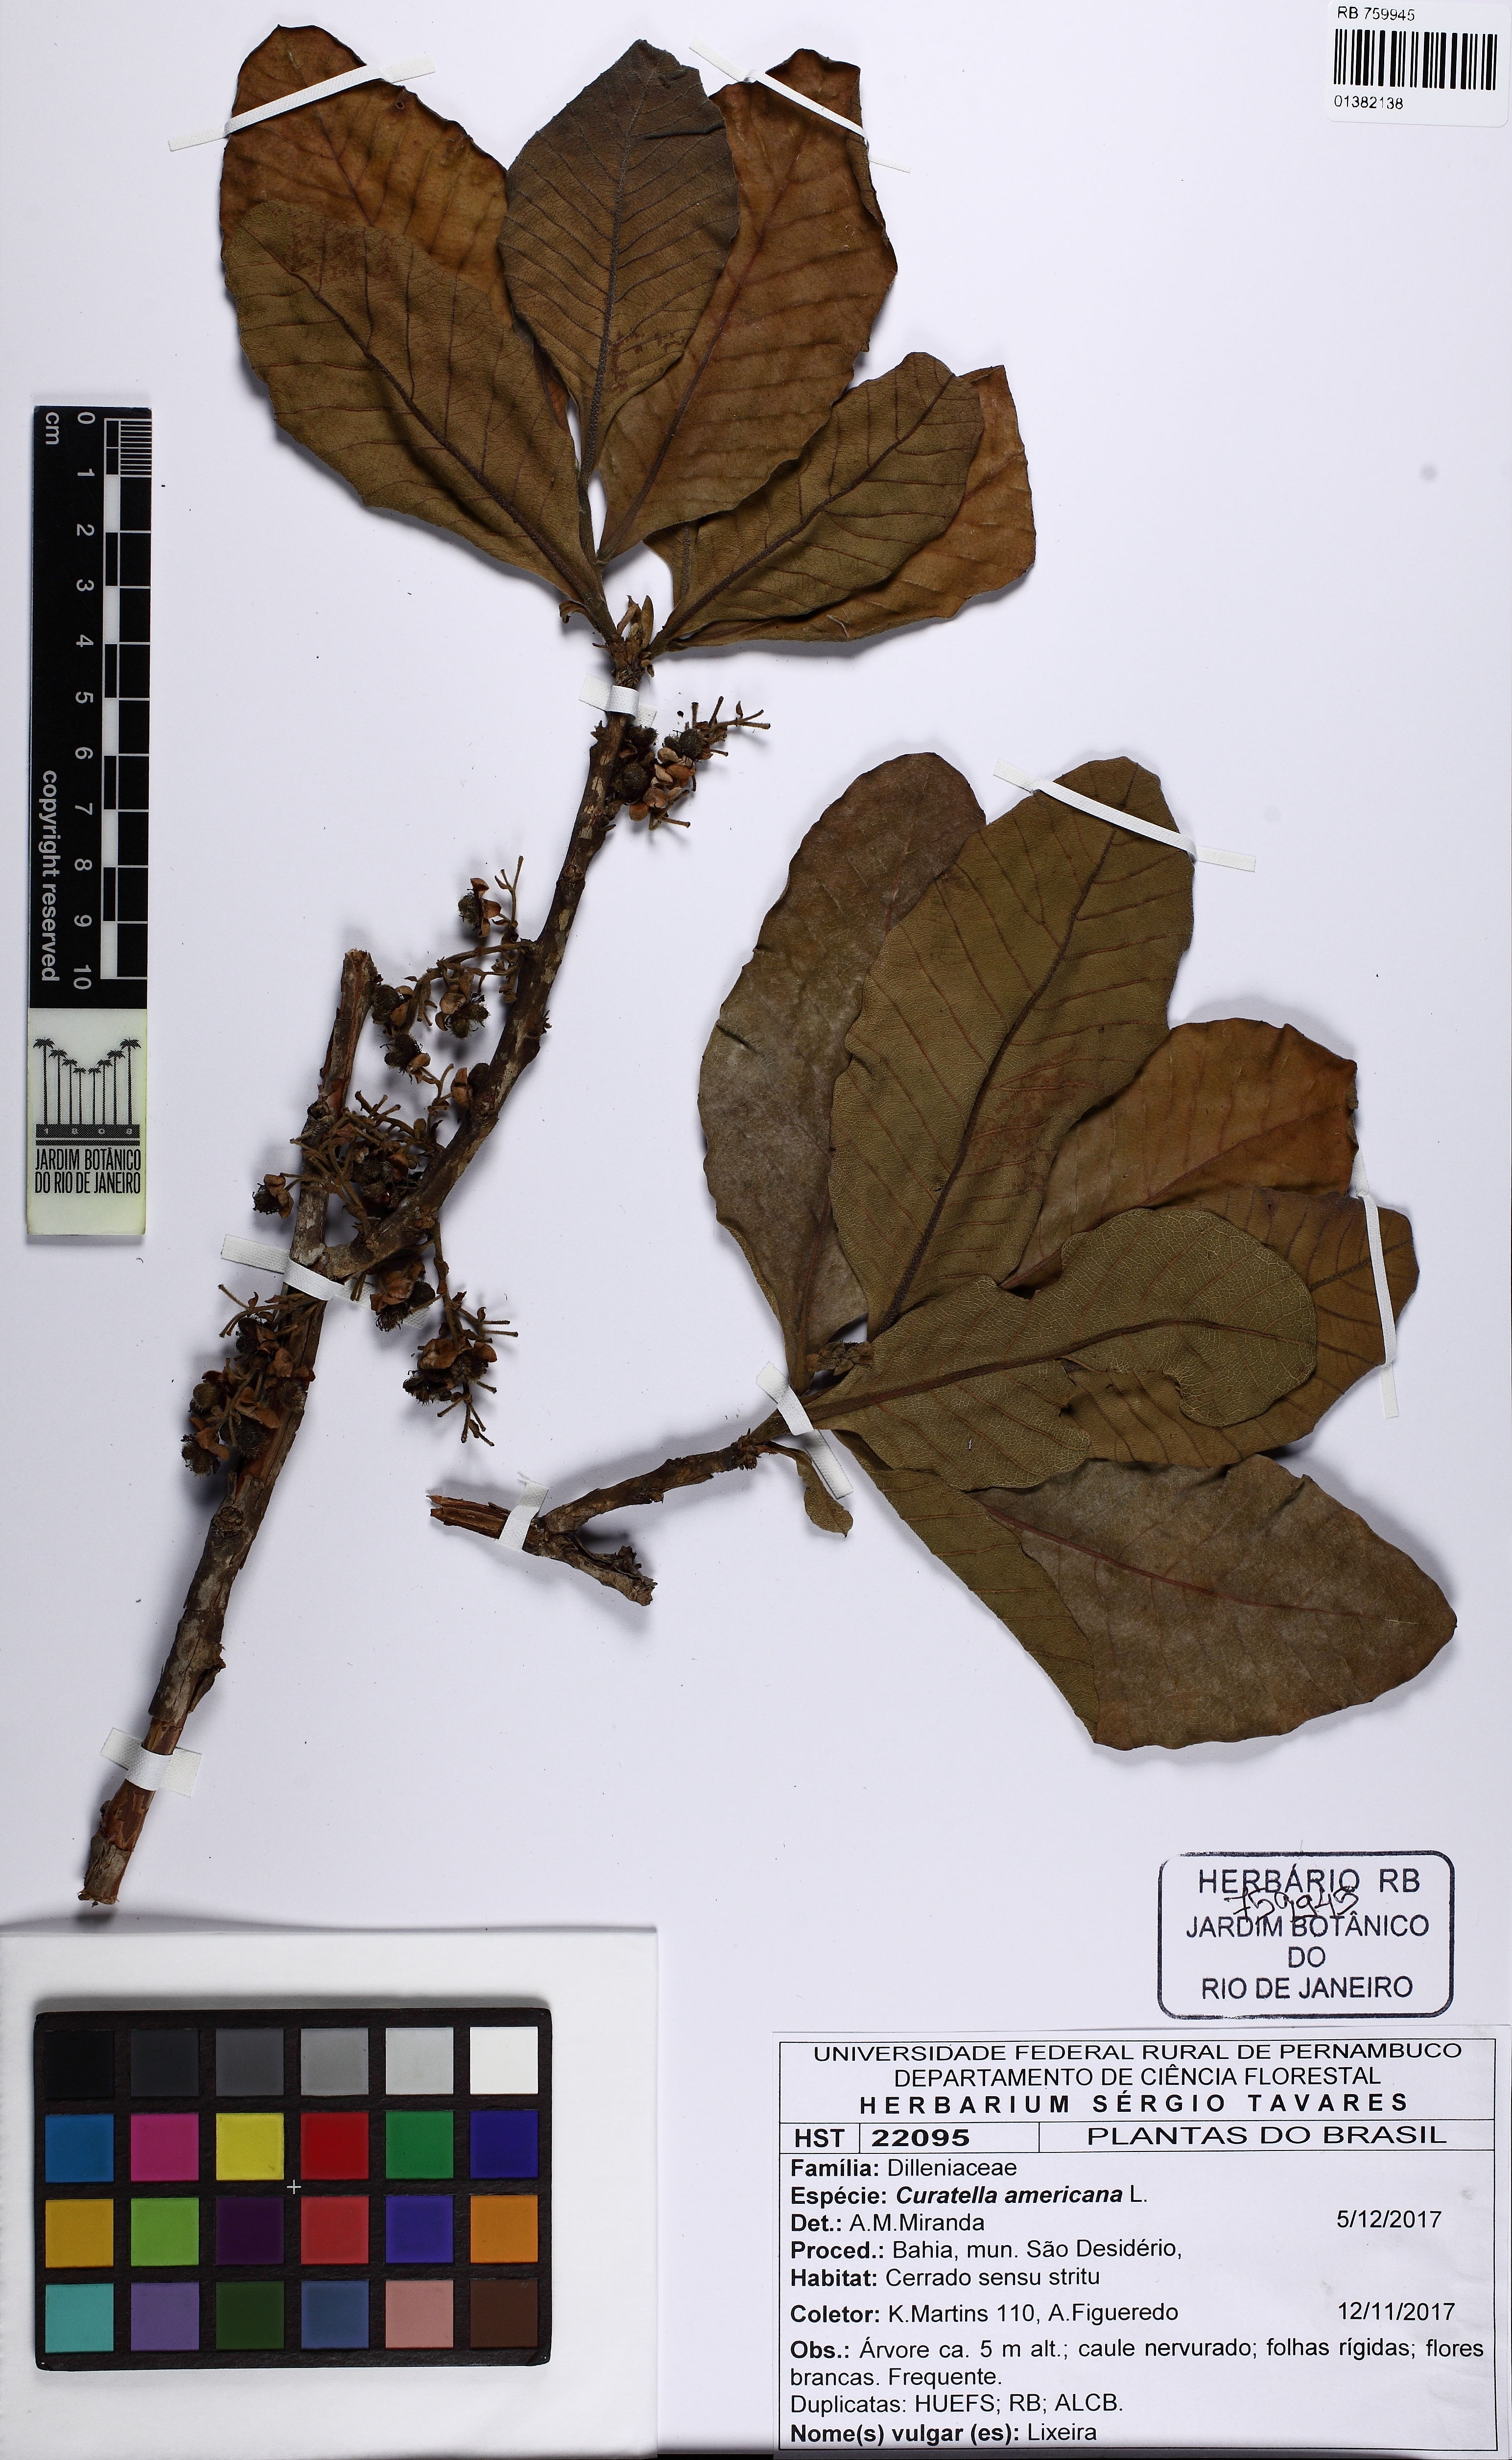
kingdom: Plantae
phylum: Tracheophyta
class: Magnoliopsida
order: Dilleniales
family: Dilleniaceae
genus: Curatella
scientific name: Curatella americana
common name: Sandpaper tree
